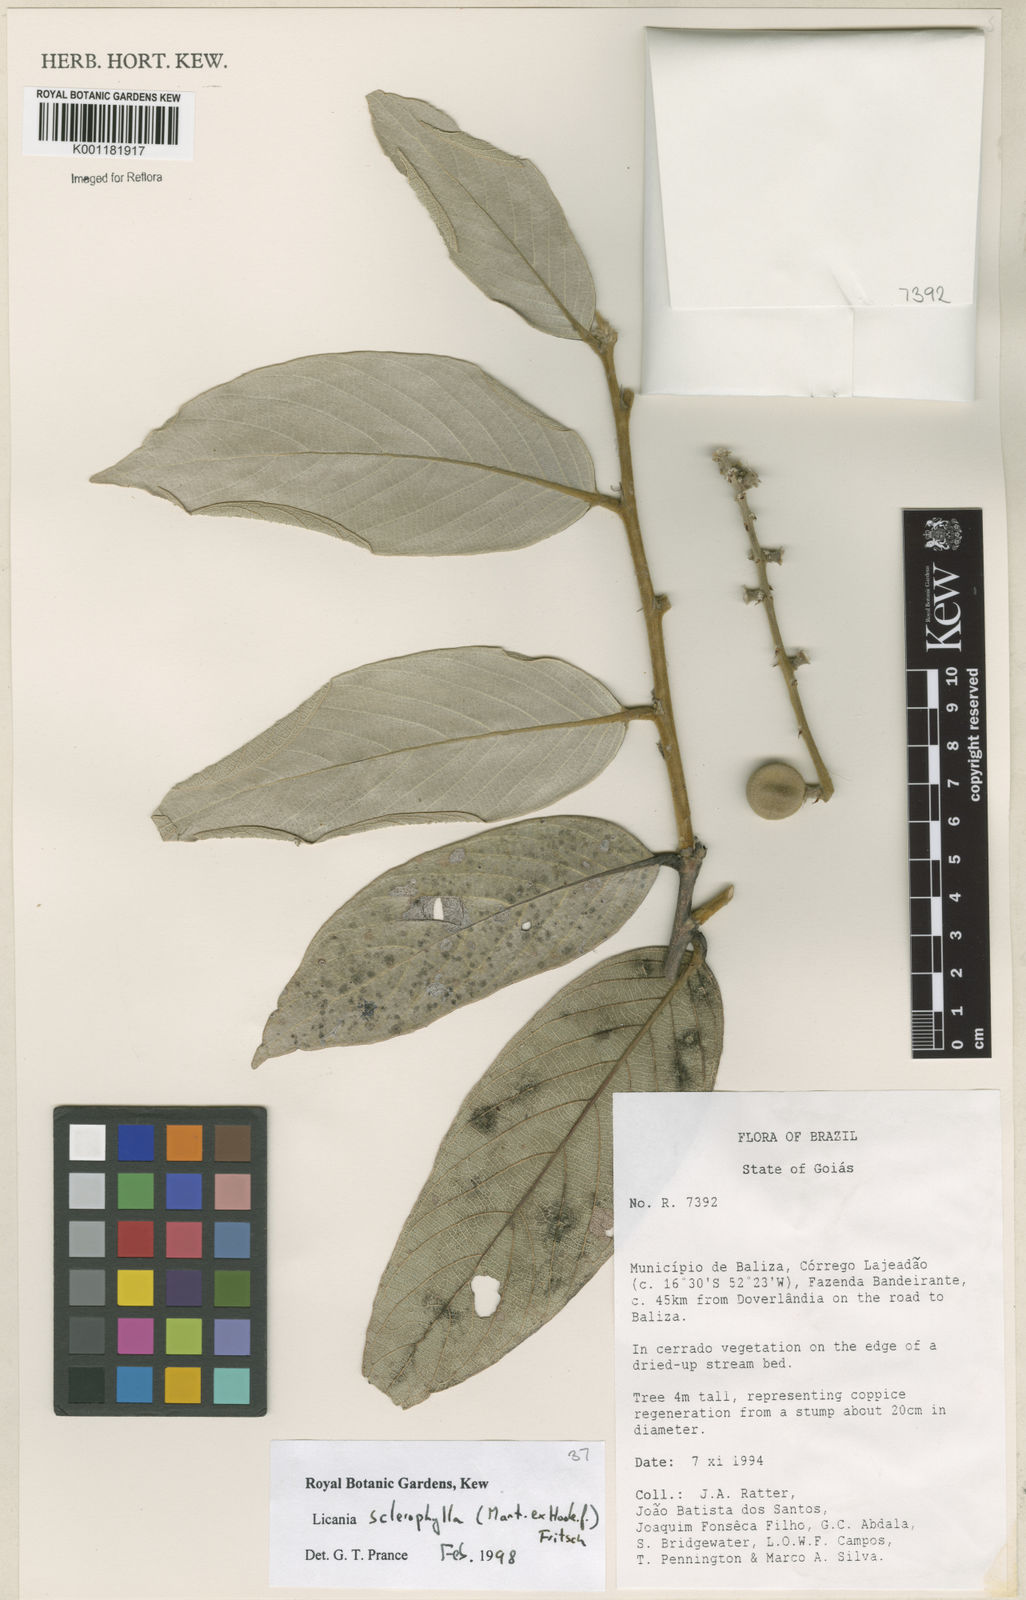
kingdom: Plantae
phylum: Tracheophyta
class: Magnoliopsida
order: Malpighiales
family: Chrysobalanaceae
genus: Leptobalanus
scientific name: Leptobalanus sclerophyllus
